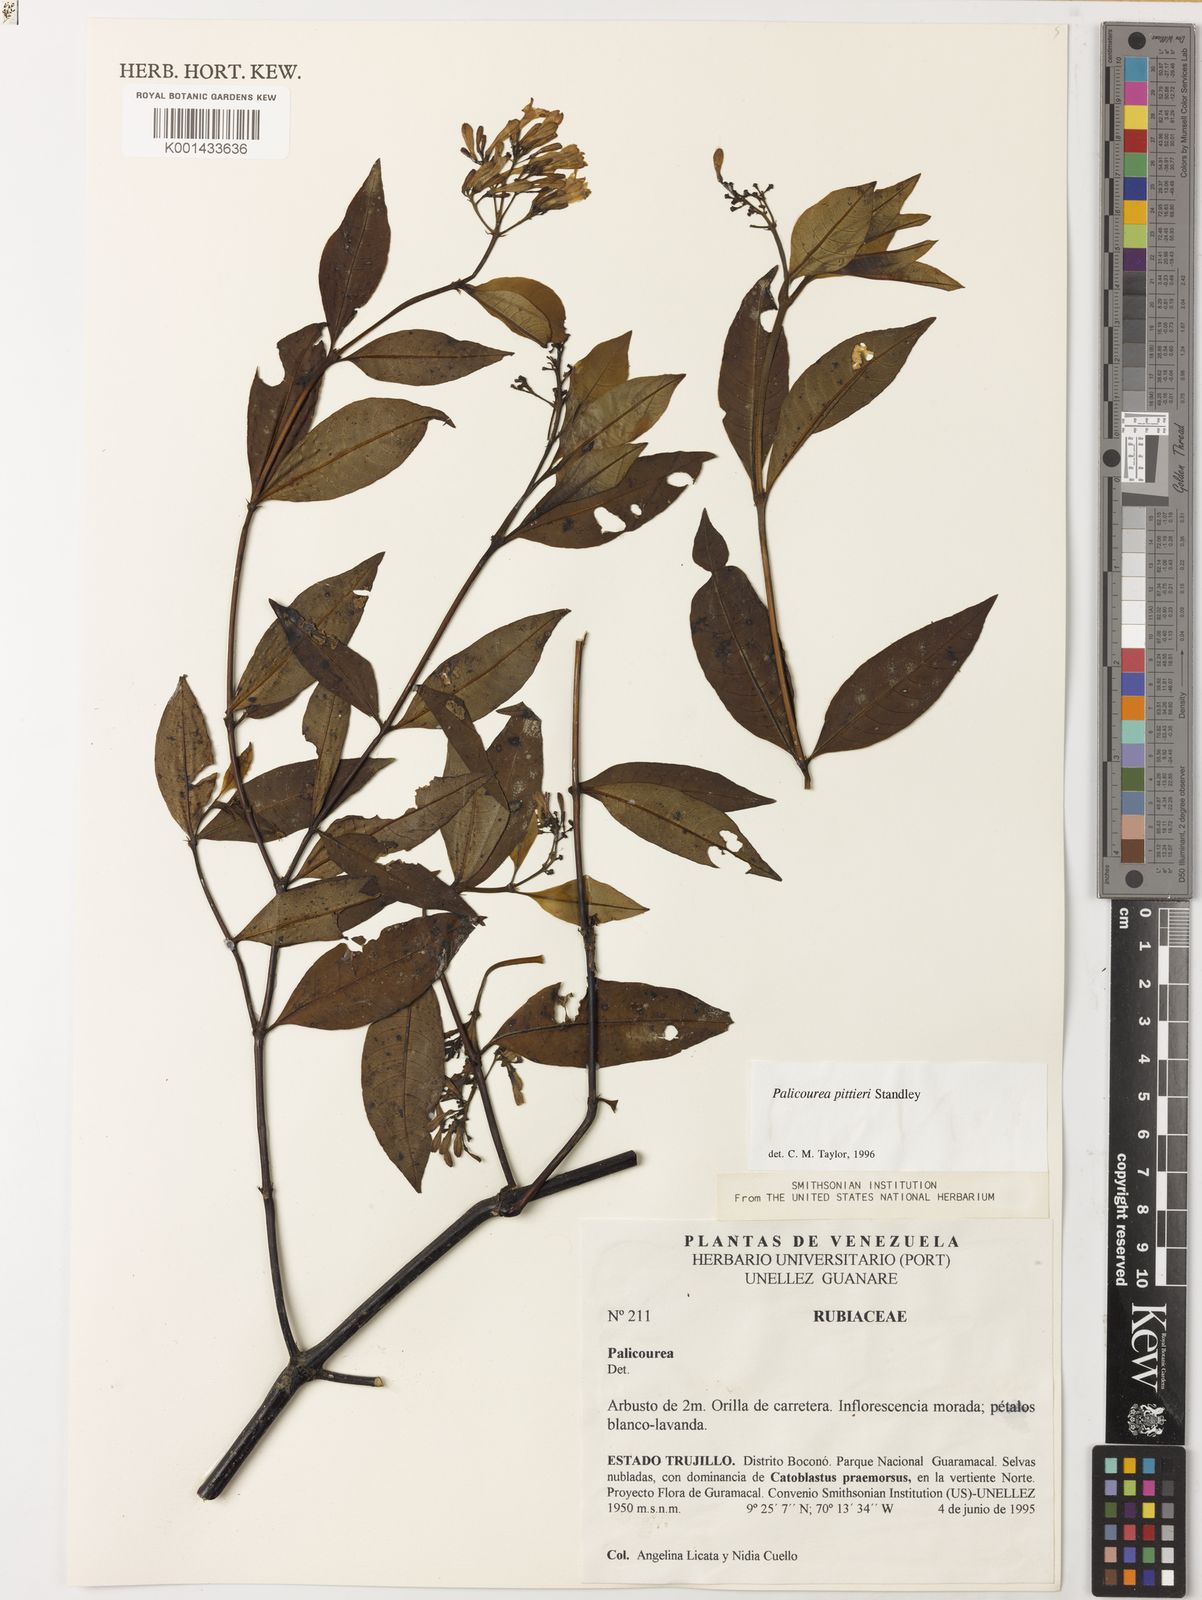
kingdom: Plantae
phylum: Tracheophyta
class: Magnoliopsida
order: Gentianales
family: Rubiaceae
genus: Palicourea
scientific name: Palicourea pittieri
